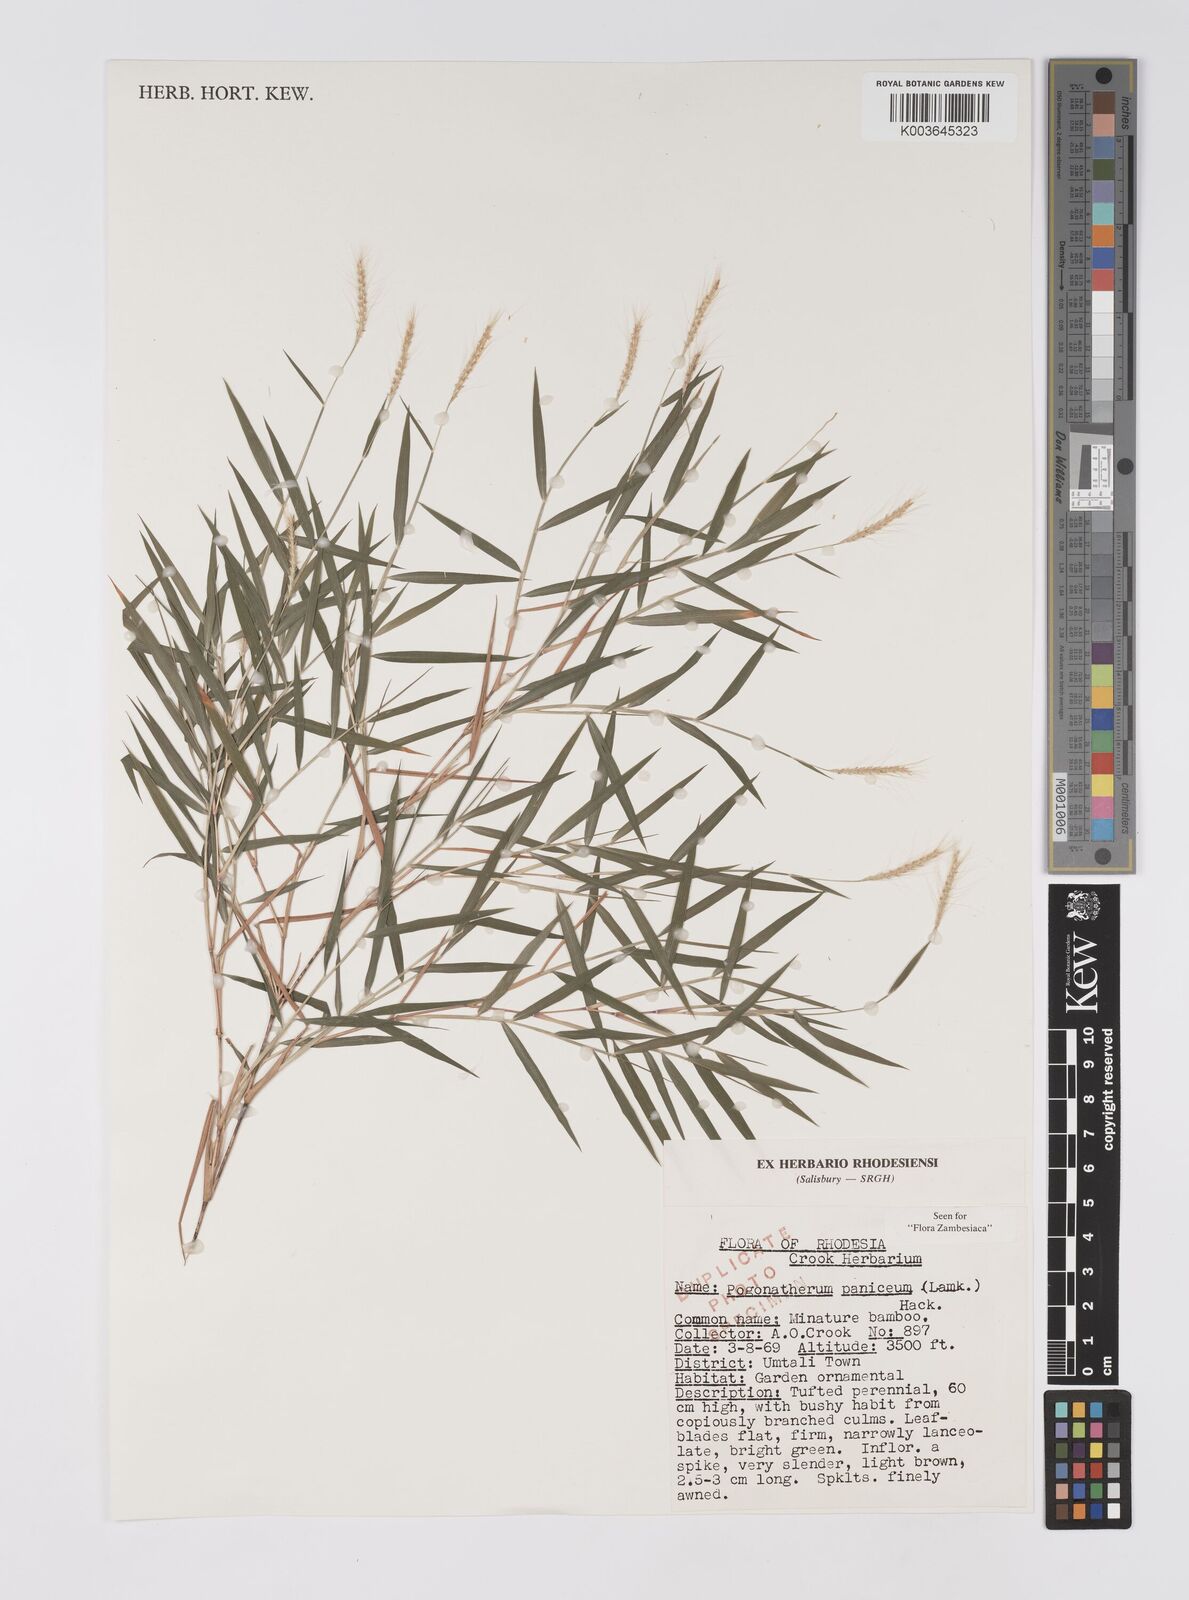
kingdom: Plantae
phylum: Tracheophyta
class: Liliopsida
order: Poales
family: Poaceae
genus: Pogonatherum
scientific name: Pogonatherum paniceum
